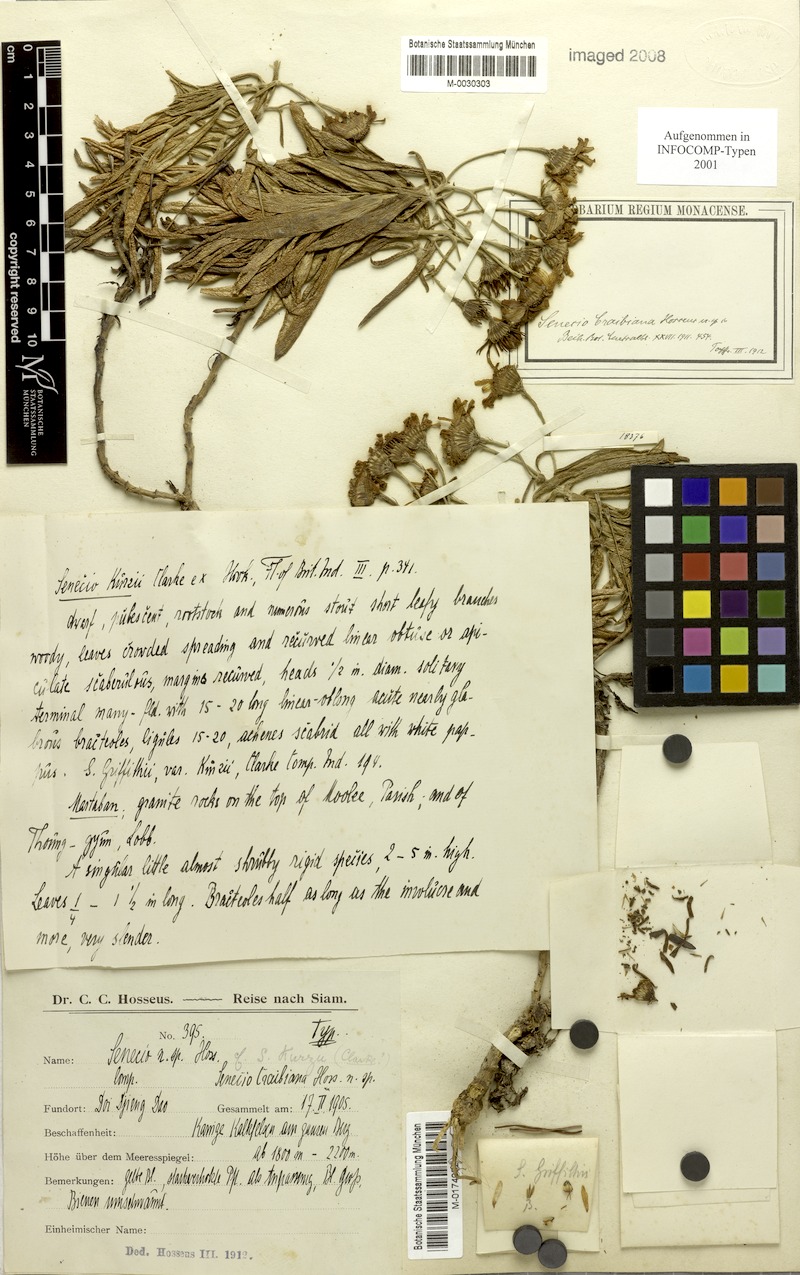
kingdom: Plantae
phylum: Tracheophyta
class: Magnoliopsida
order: Asterales
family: Asteraceae
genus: Senecio
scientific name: Senecio kurzii
